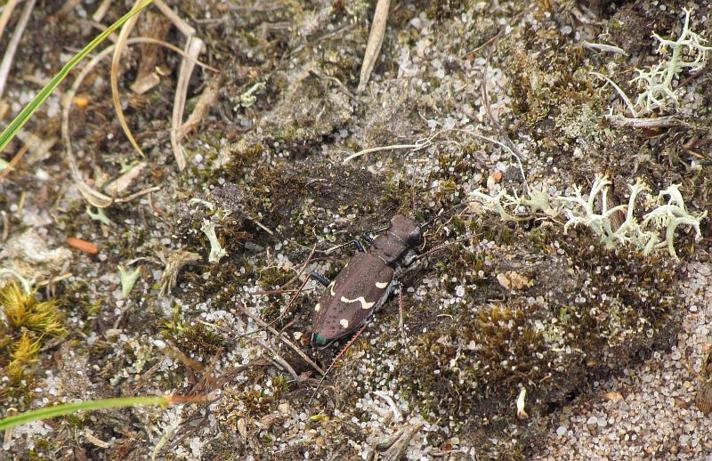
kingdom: Animalia
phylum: Arthropoda
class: Insecta
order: Coleoptera
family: Carabidae
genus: Cicindela
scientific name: Cicindela sylvatica
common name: Stor sandspringer
